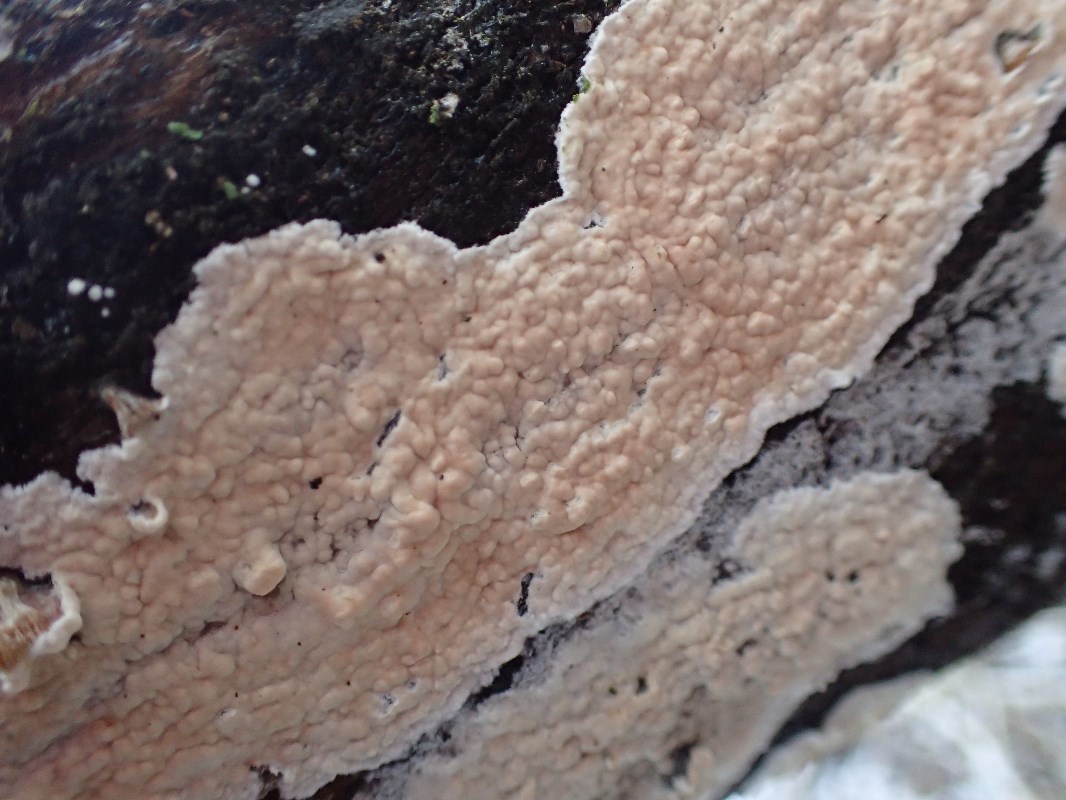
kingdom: Fungi
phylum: Basidiomycota
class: Agaricomycetes
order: Agaricales
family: Cyphellaceae
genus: Granulobasidium
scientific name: Granulobasidium vellereum
